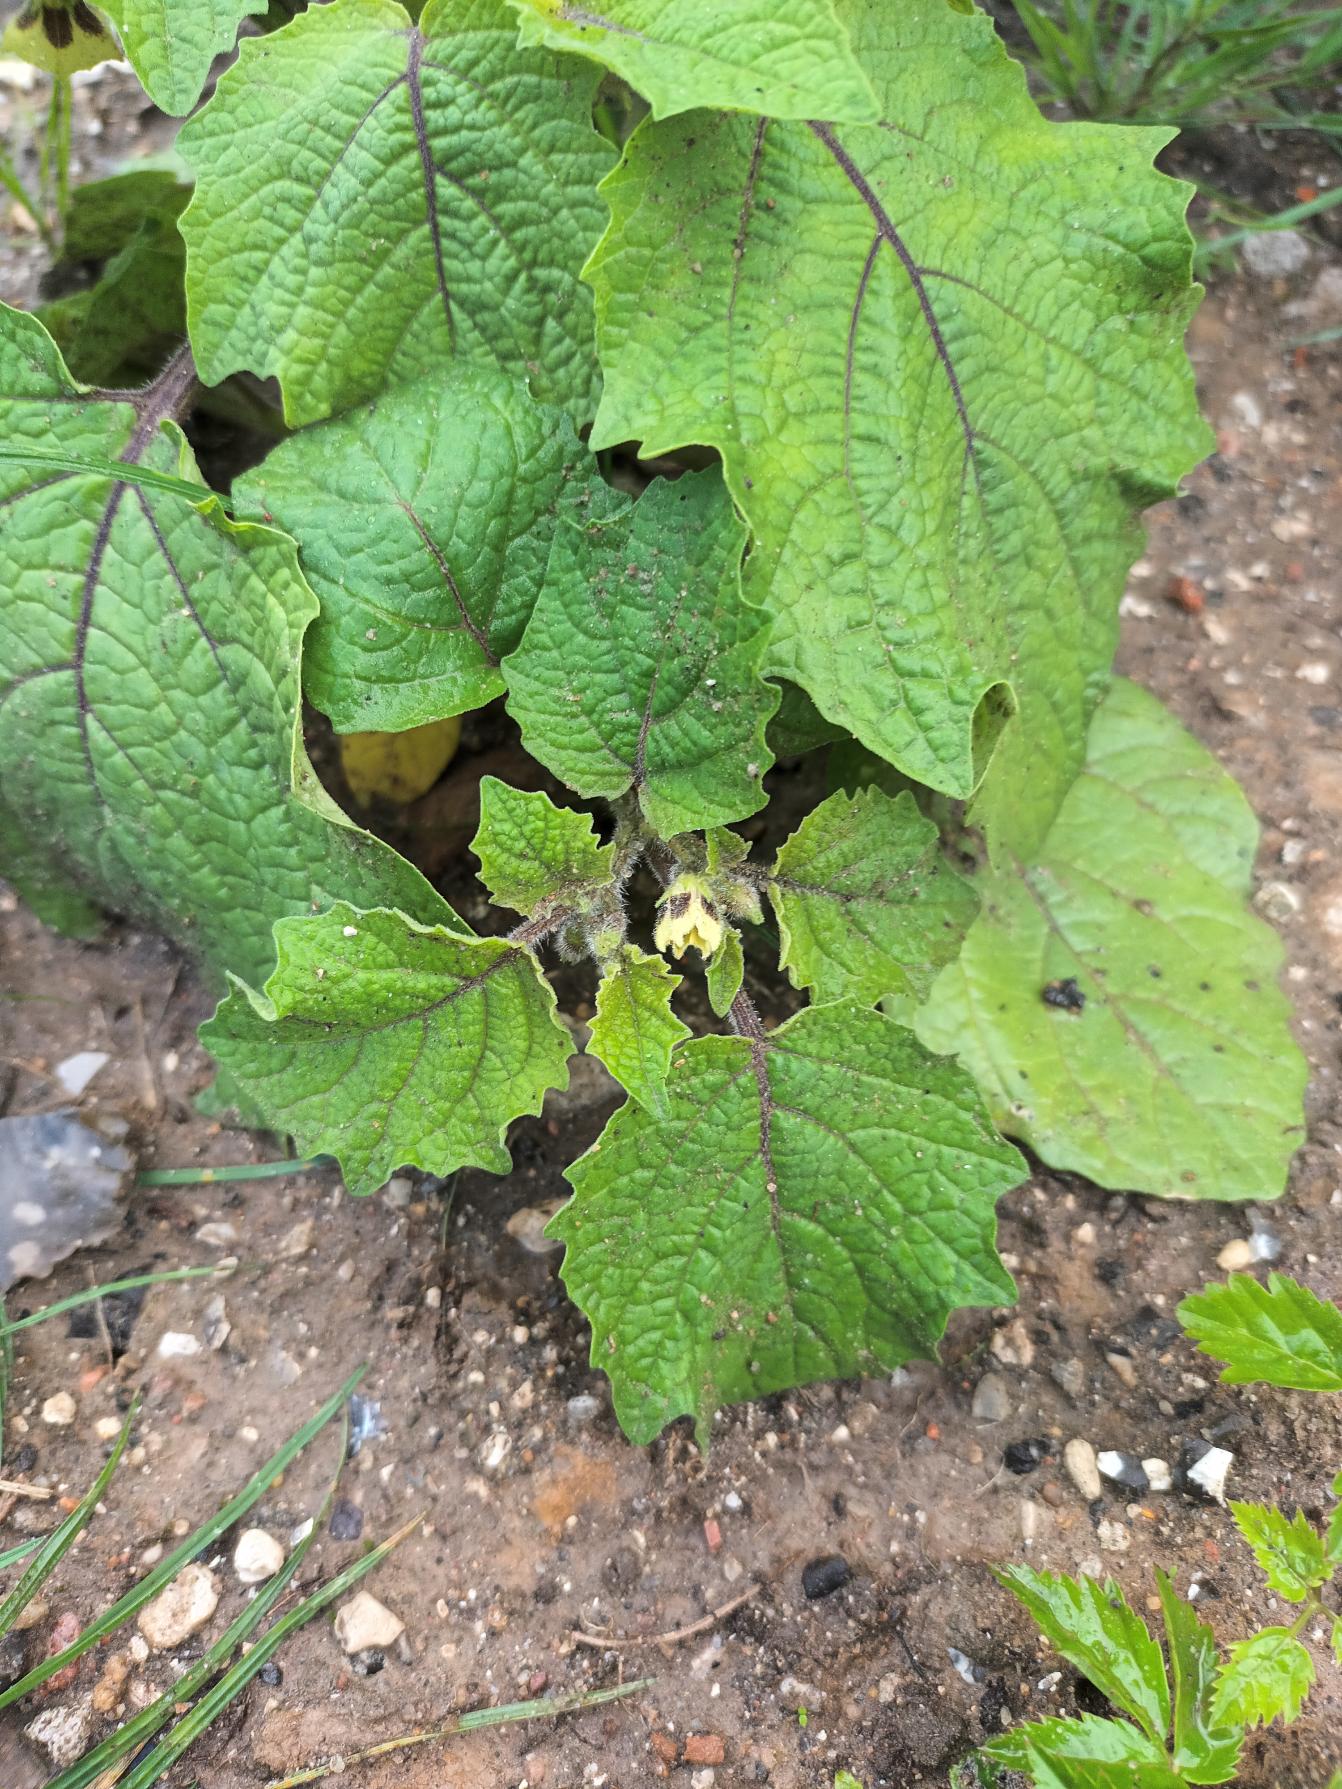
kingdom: Plantae
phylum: Tracheophyta
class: Magnoliopsida
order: Solanales
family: Solanaceae
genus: Physalis
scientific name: Physalis grisea
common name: Jordbærtomat
